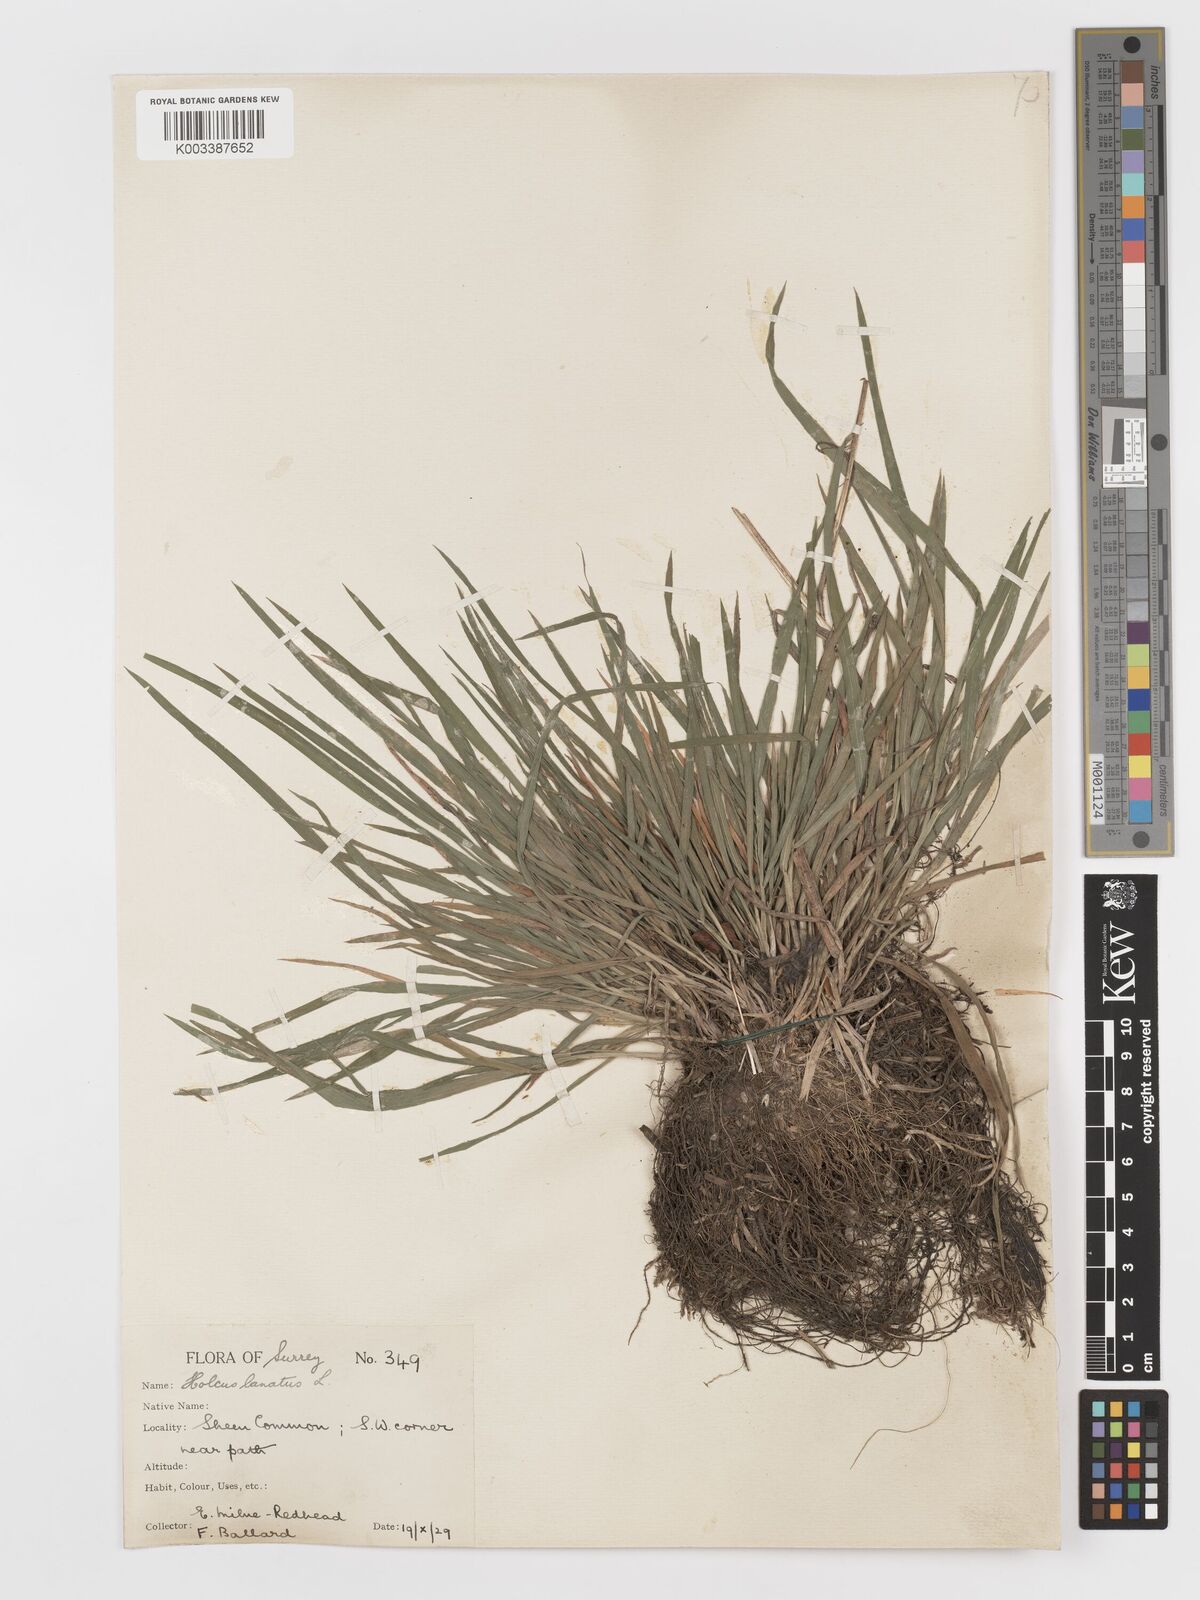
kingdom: Plantae
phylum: Tracheophyta
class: Liliopsida
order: Poales
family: Poaceae
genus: Holcus
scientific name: Holcus lanatus
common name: Yorkshire-fog
